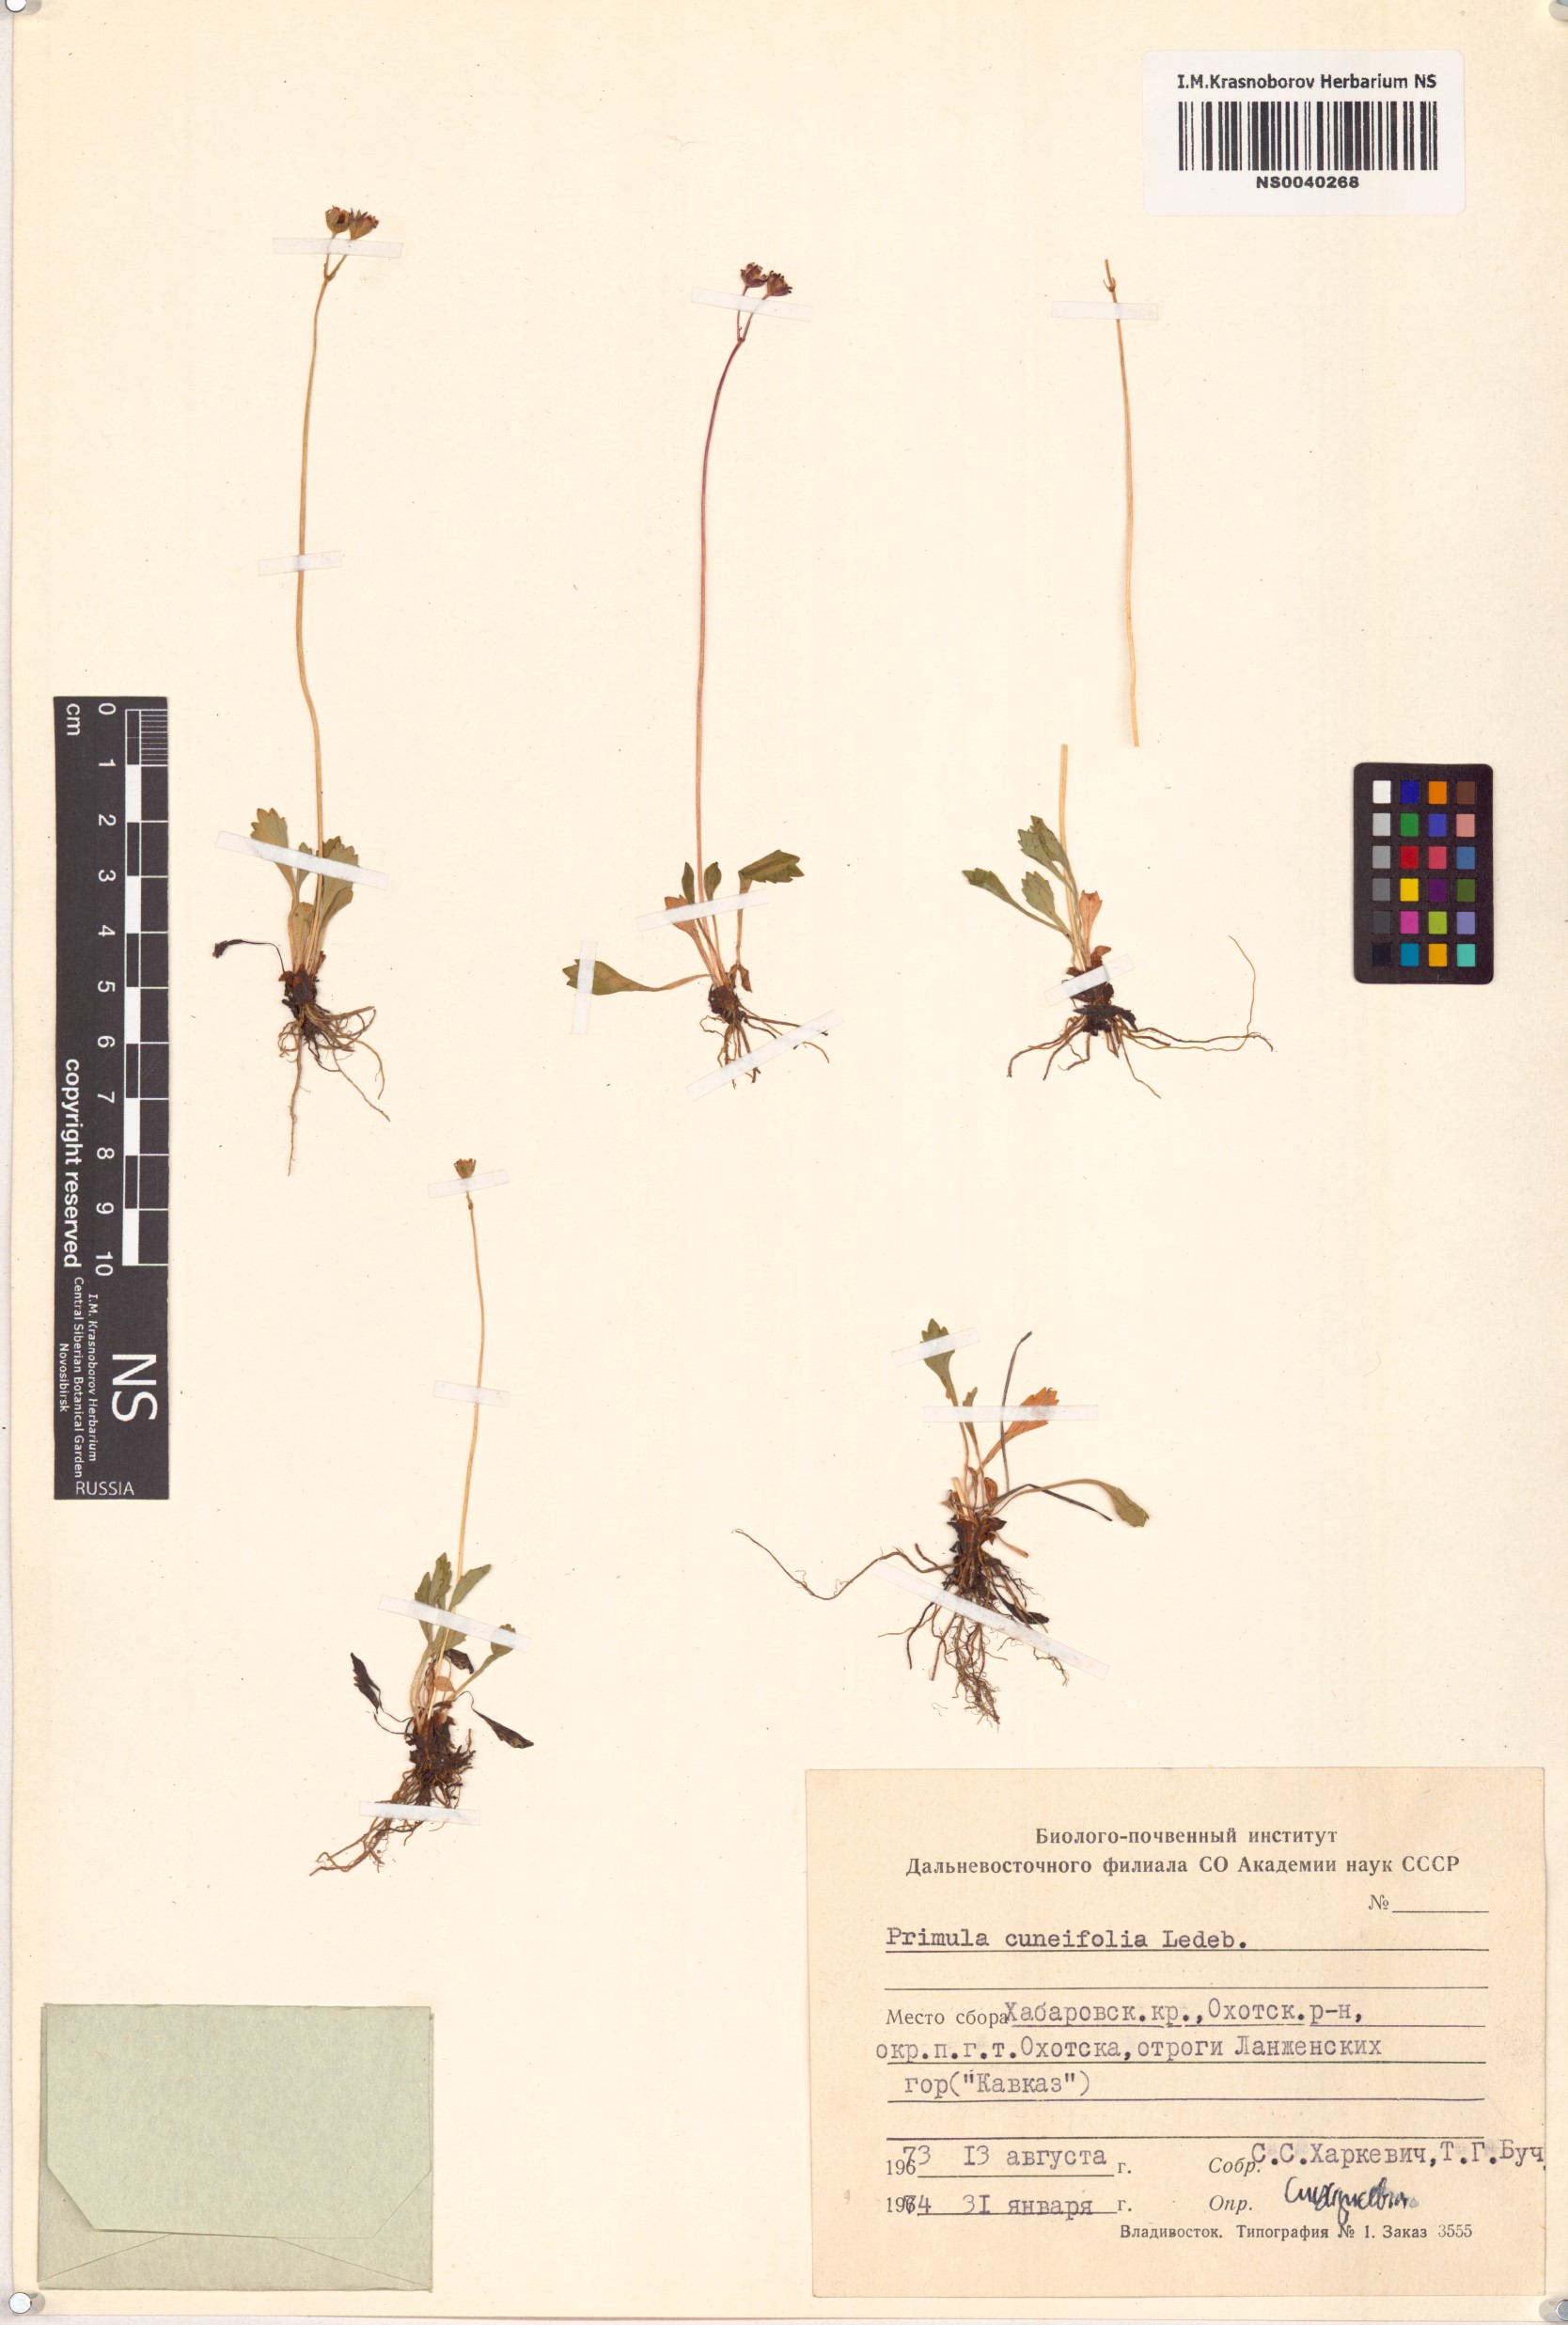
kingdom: Plantae
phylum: Tracheophyta
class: Magnoliopsida
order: Ericales
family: Primulaceae
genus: Primula
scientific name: Primula cuneifolia
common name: Wedge-leaved primrose
